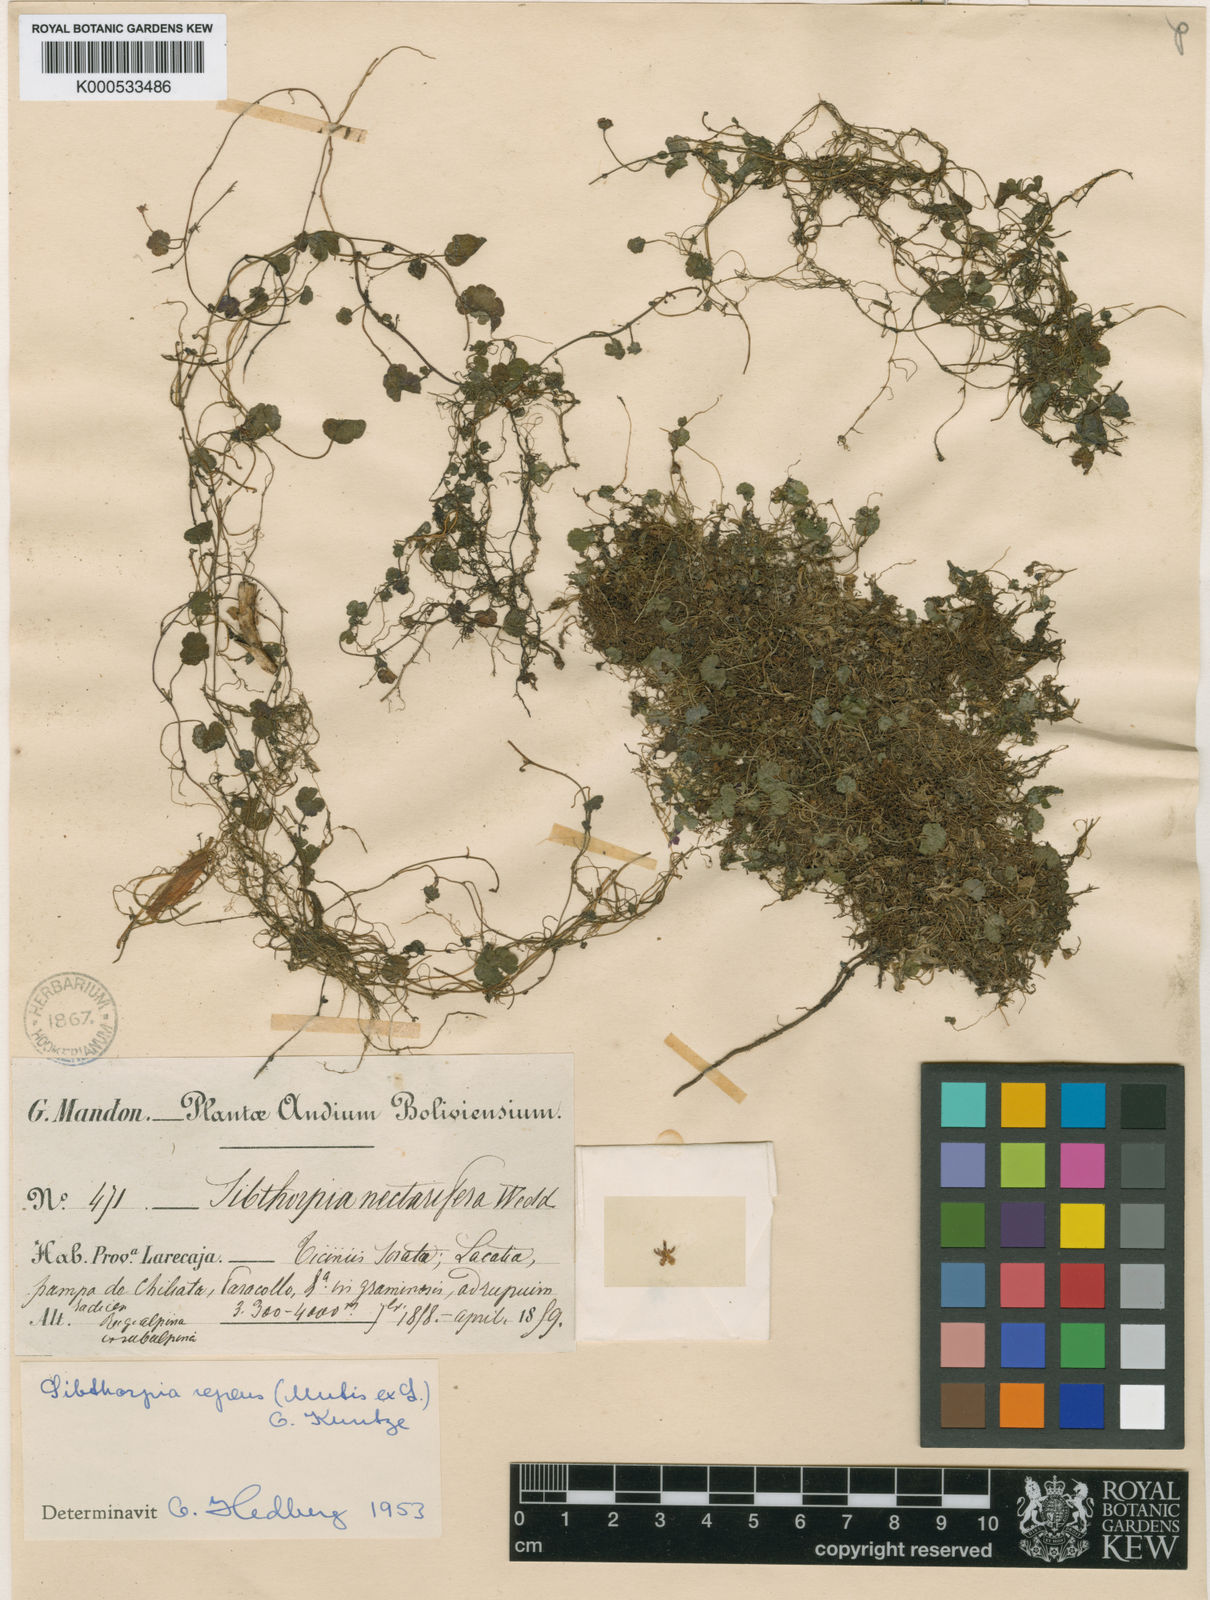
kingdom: Plantae
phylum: Tracheophyta
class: Magnoliopsida
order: Lamiales
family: Plantaginaceae
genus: Sibthorpia
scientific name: Sibthorpia repens
